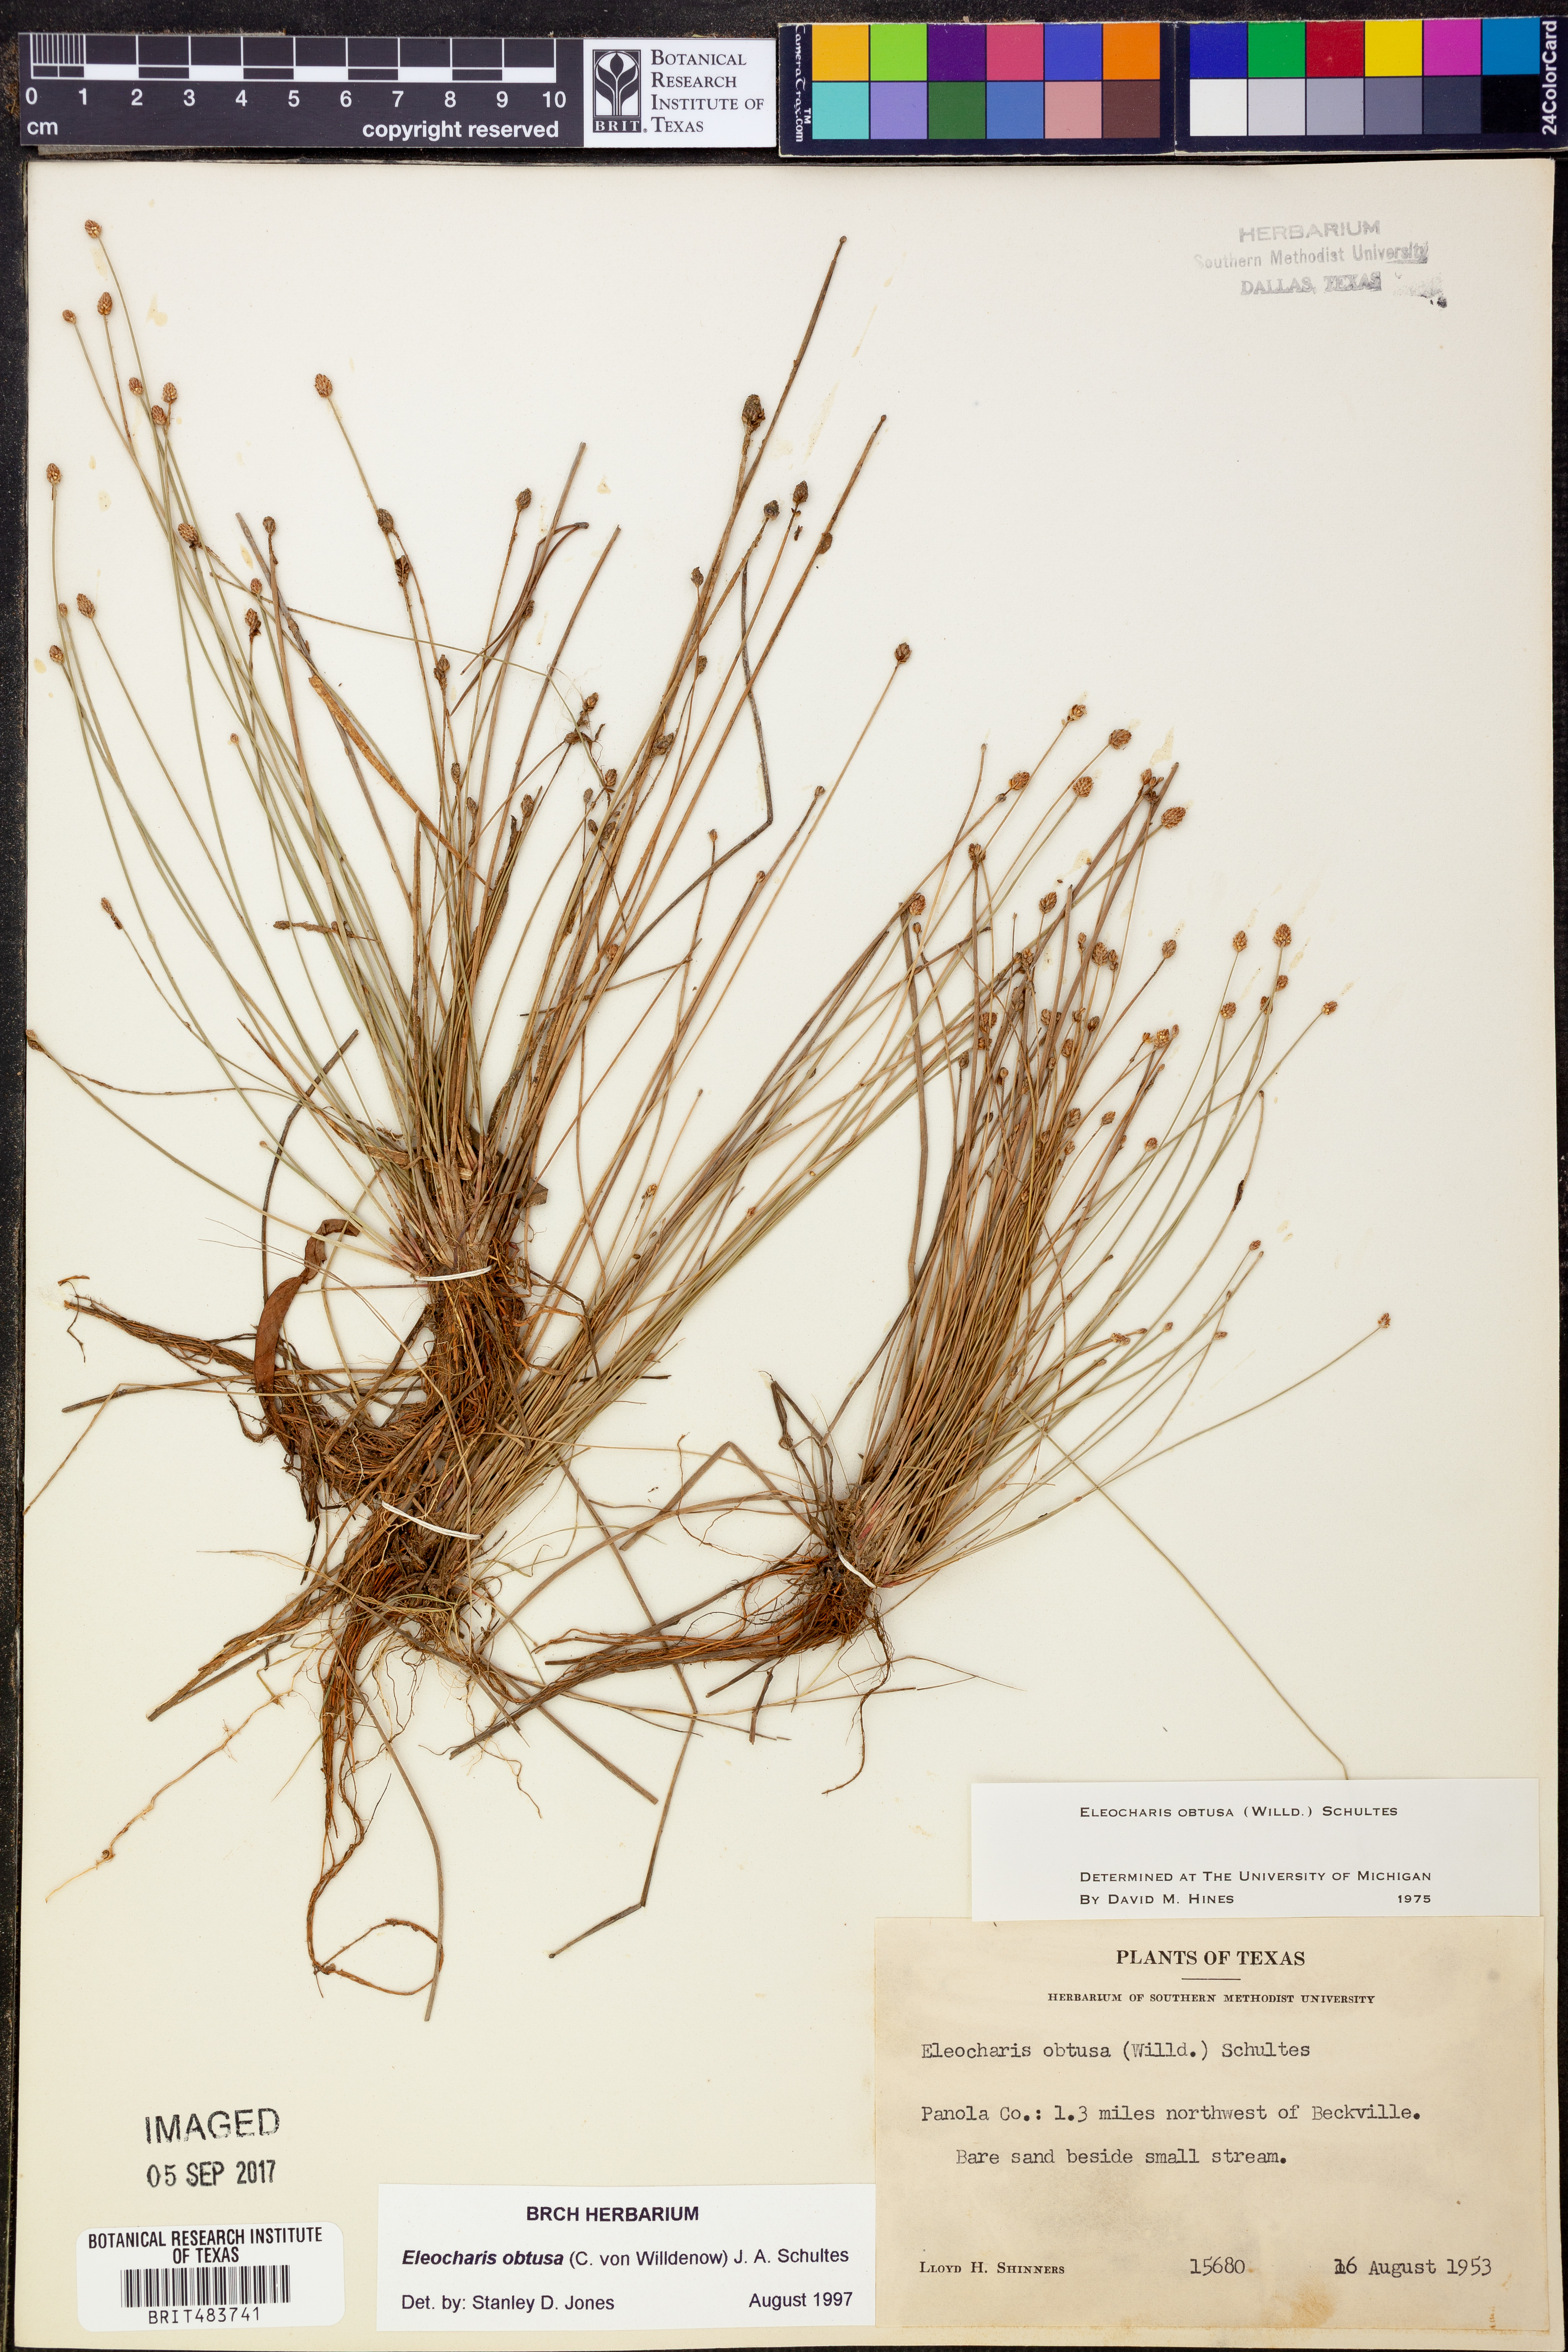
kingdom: Plantae
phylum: Tracheophyta
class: Liliopsida
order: Poales
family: Cyperaceae
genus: Eleocharis
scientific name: Eleocharis obtusa
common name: Blunt spikerush
